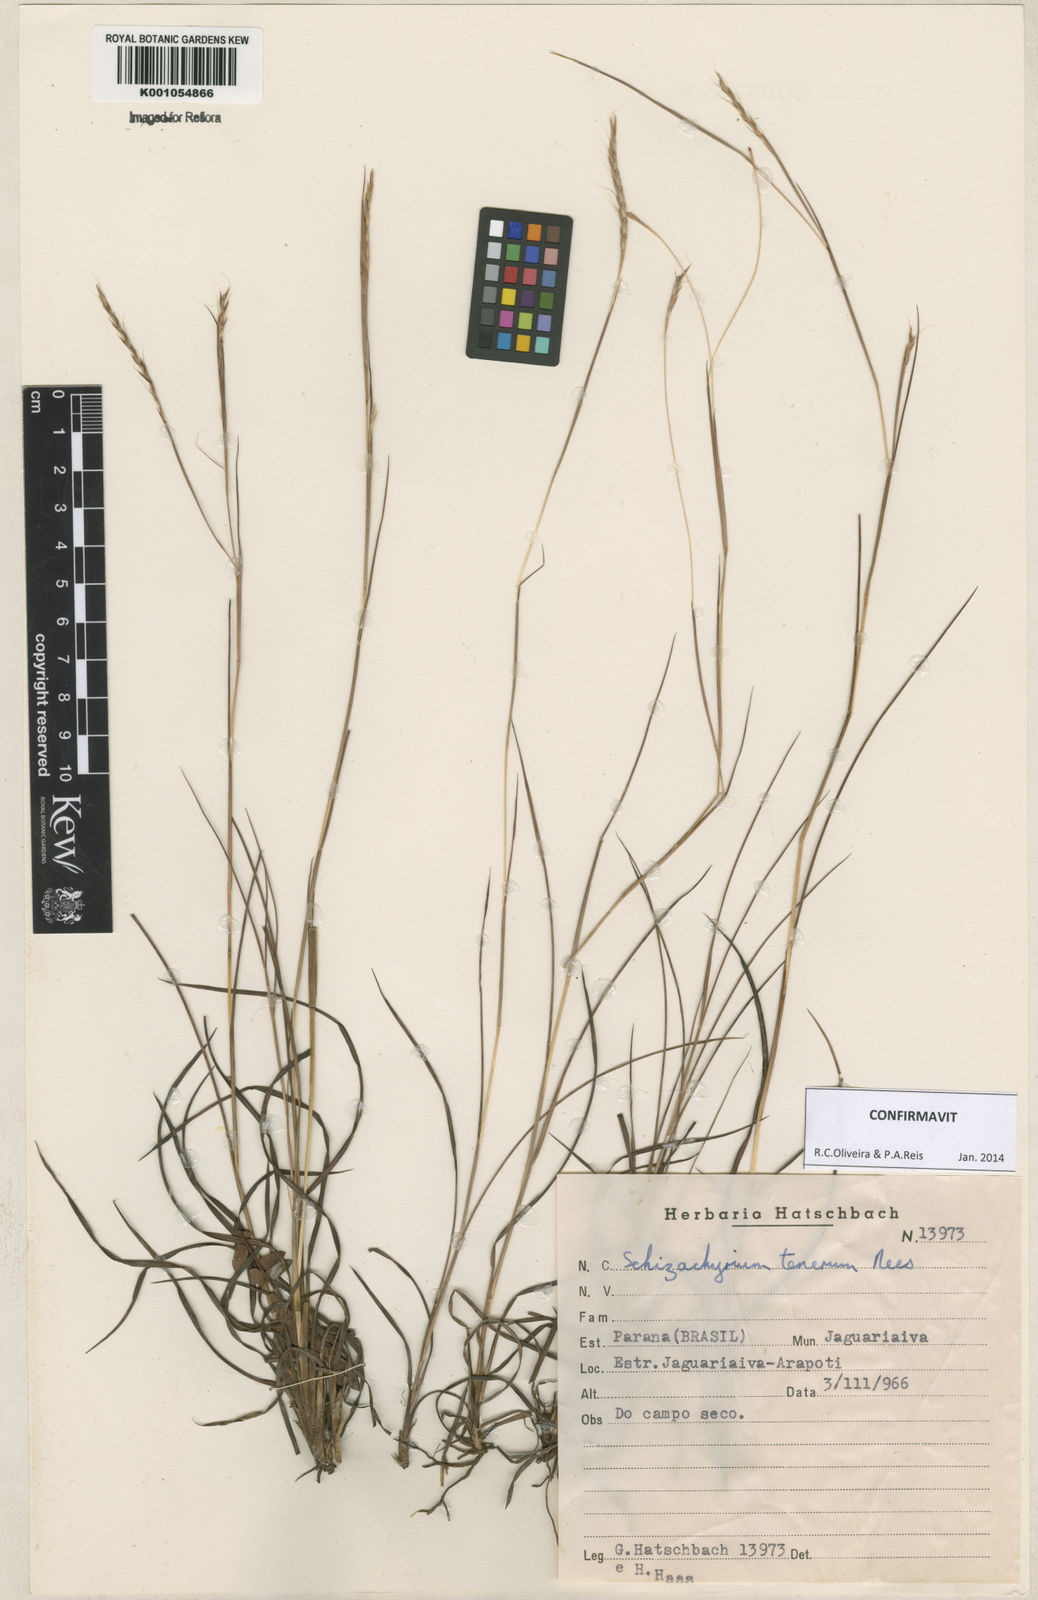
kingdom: Plantae
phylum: Tracheophyta
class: Liliopsida
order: Poales
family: Poaceae
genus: Andropogon
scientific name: Andropogon tener
